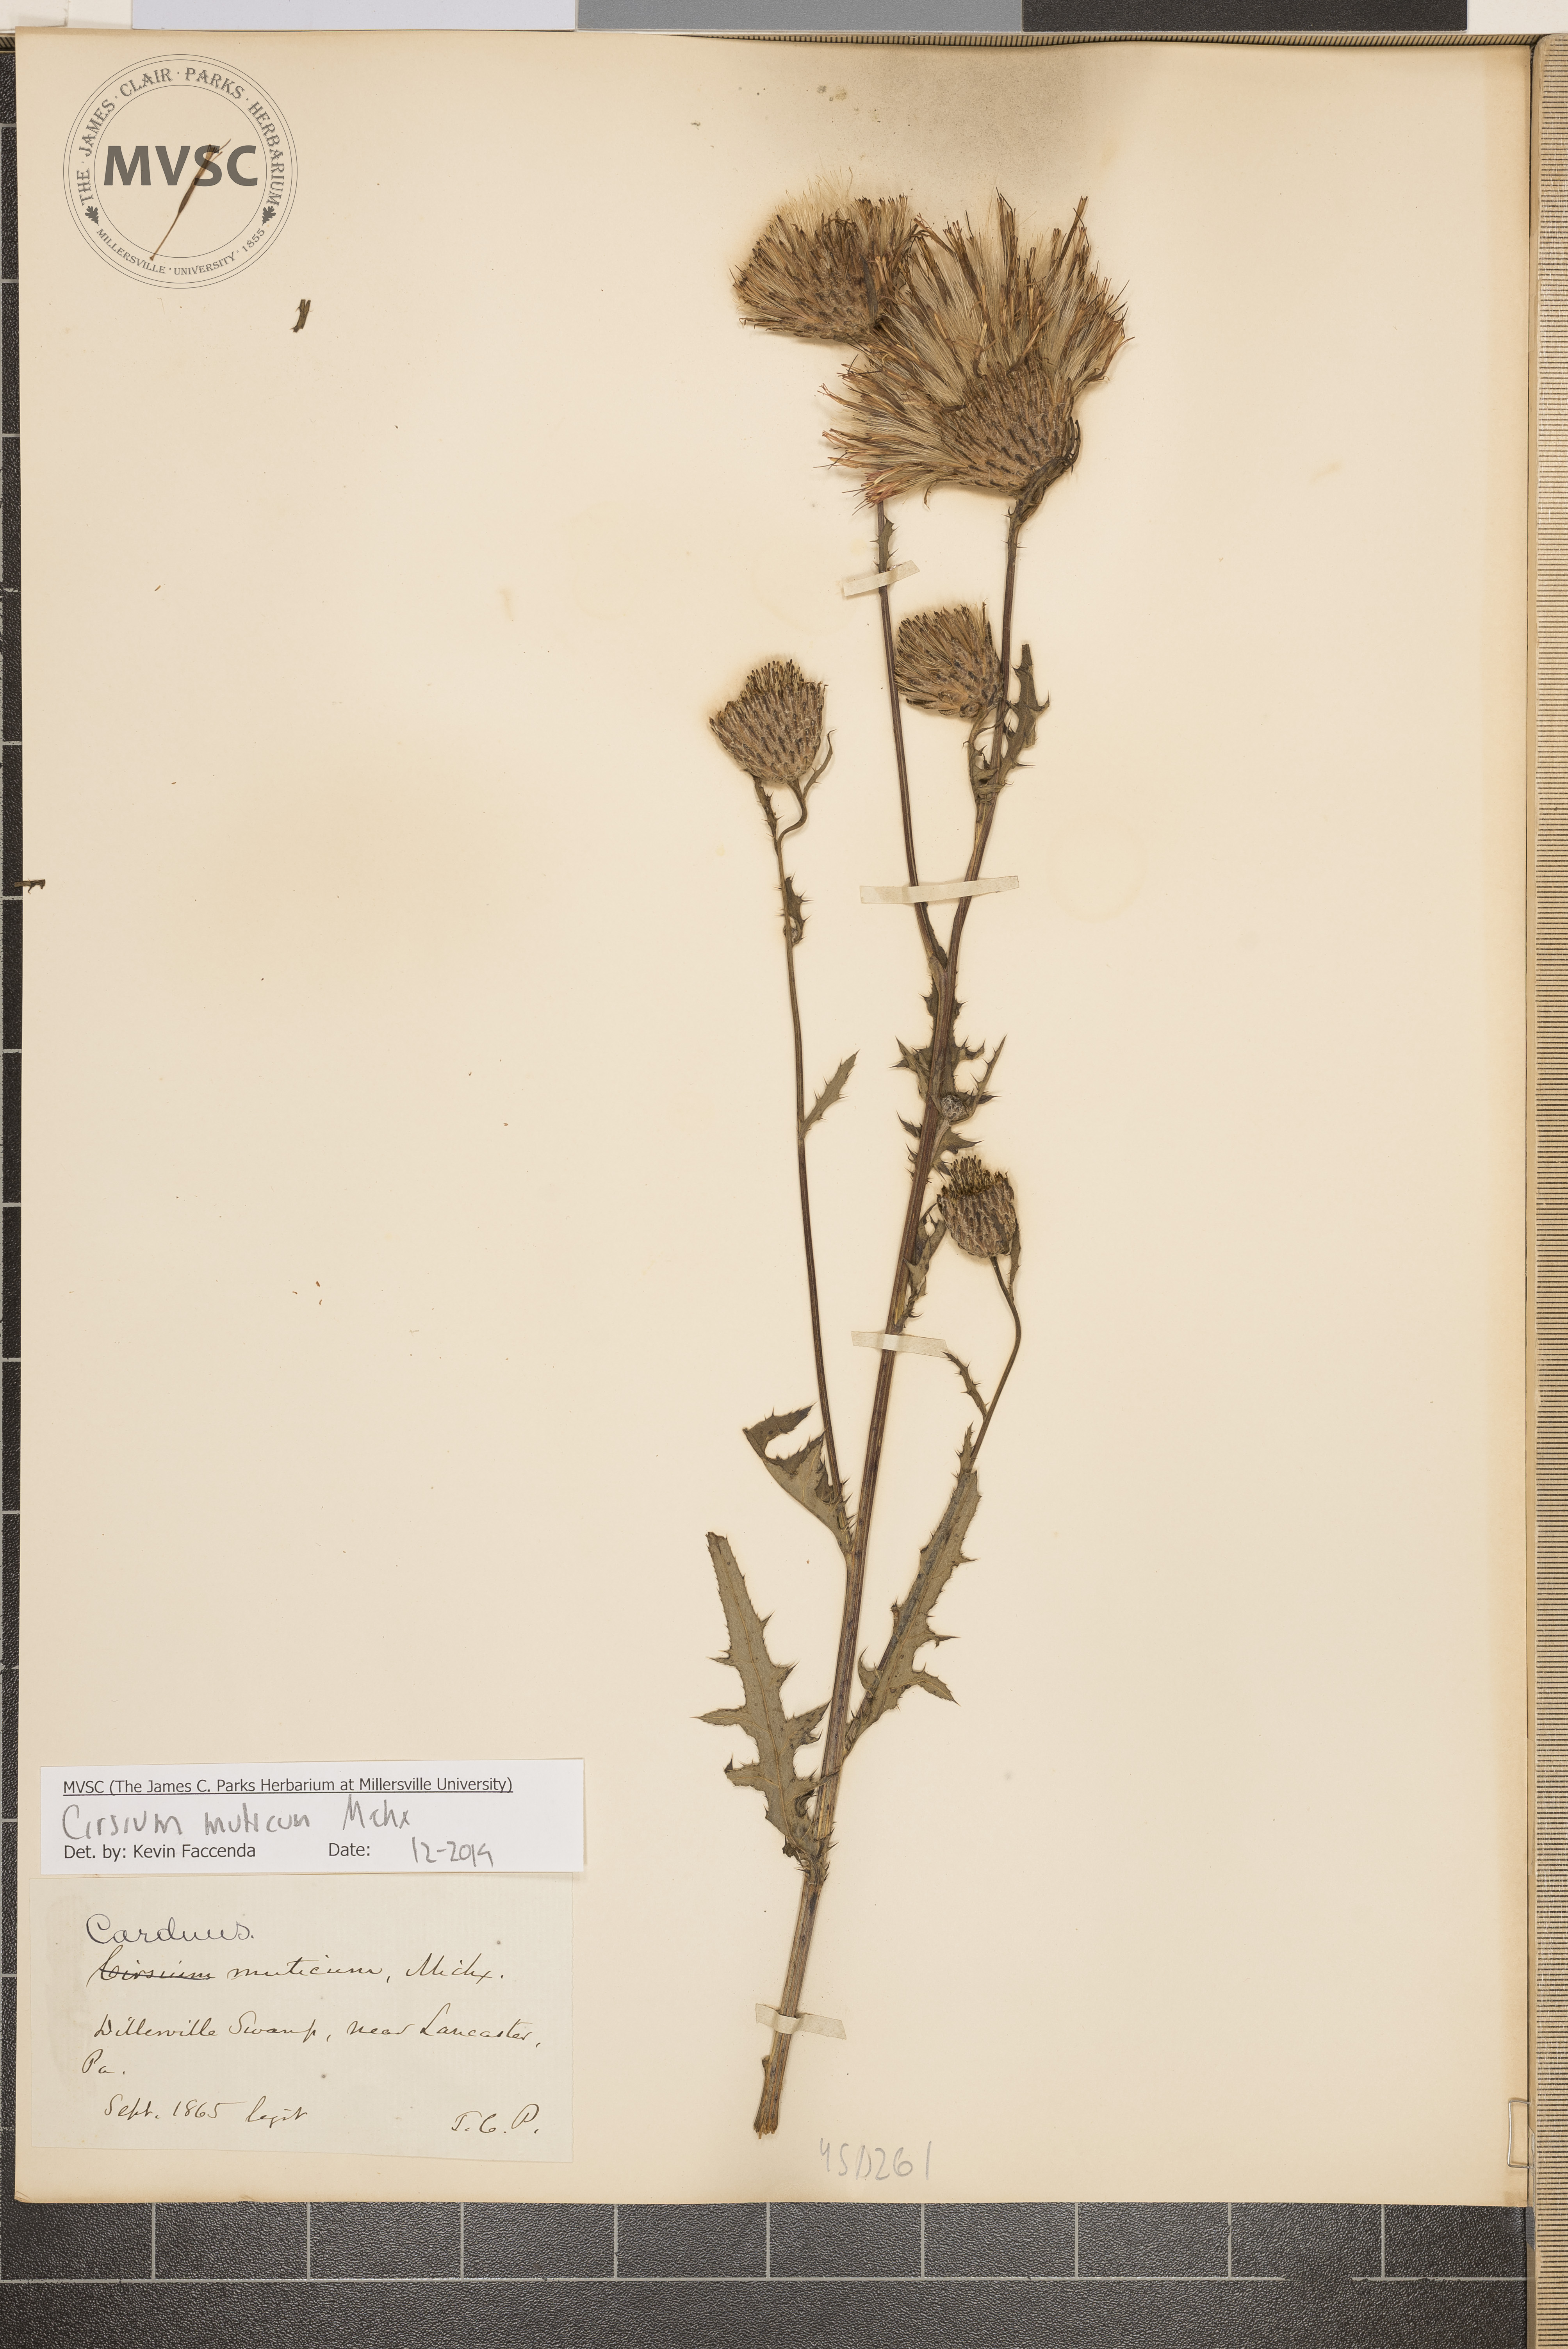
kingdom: Plantae
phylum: Tracheophyta
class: Magnoliopsida
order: Asterales
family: Asteraceae
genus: Cirsium
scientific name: Cirsium muticum
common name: Dunce-nettle
